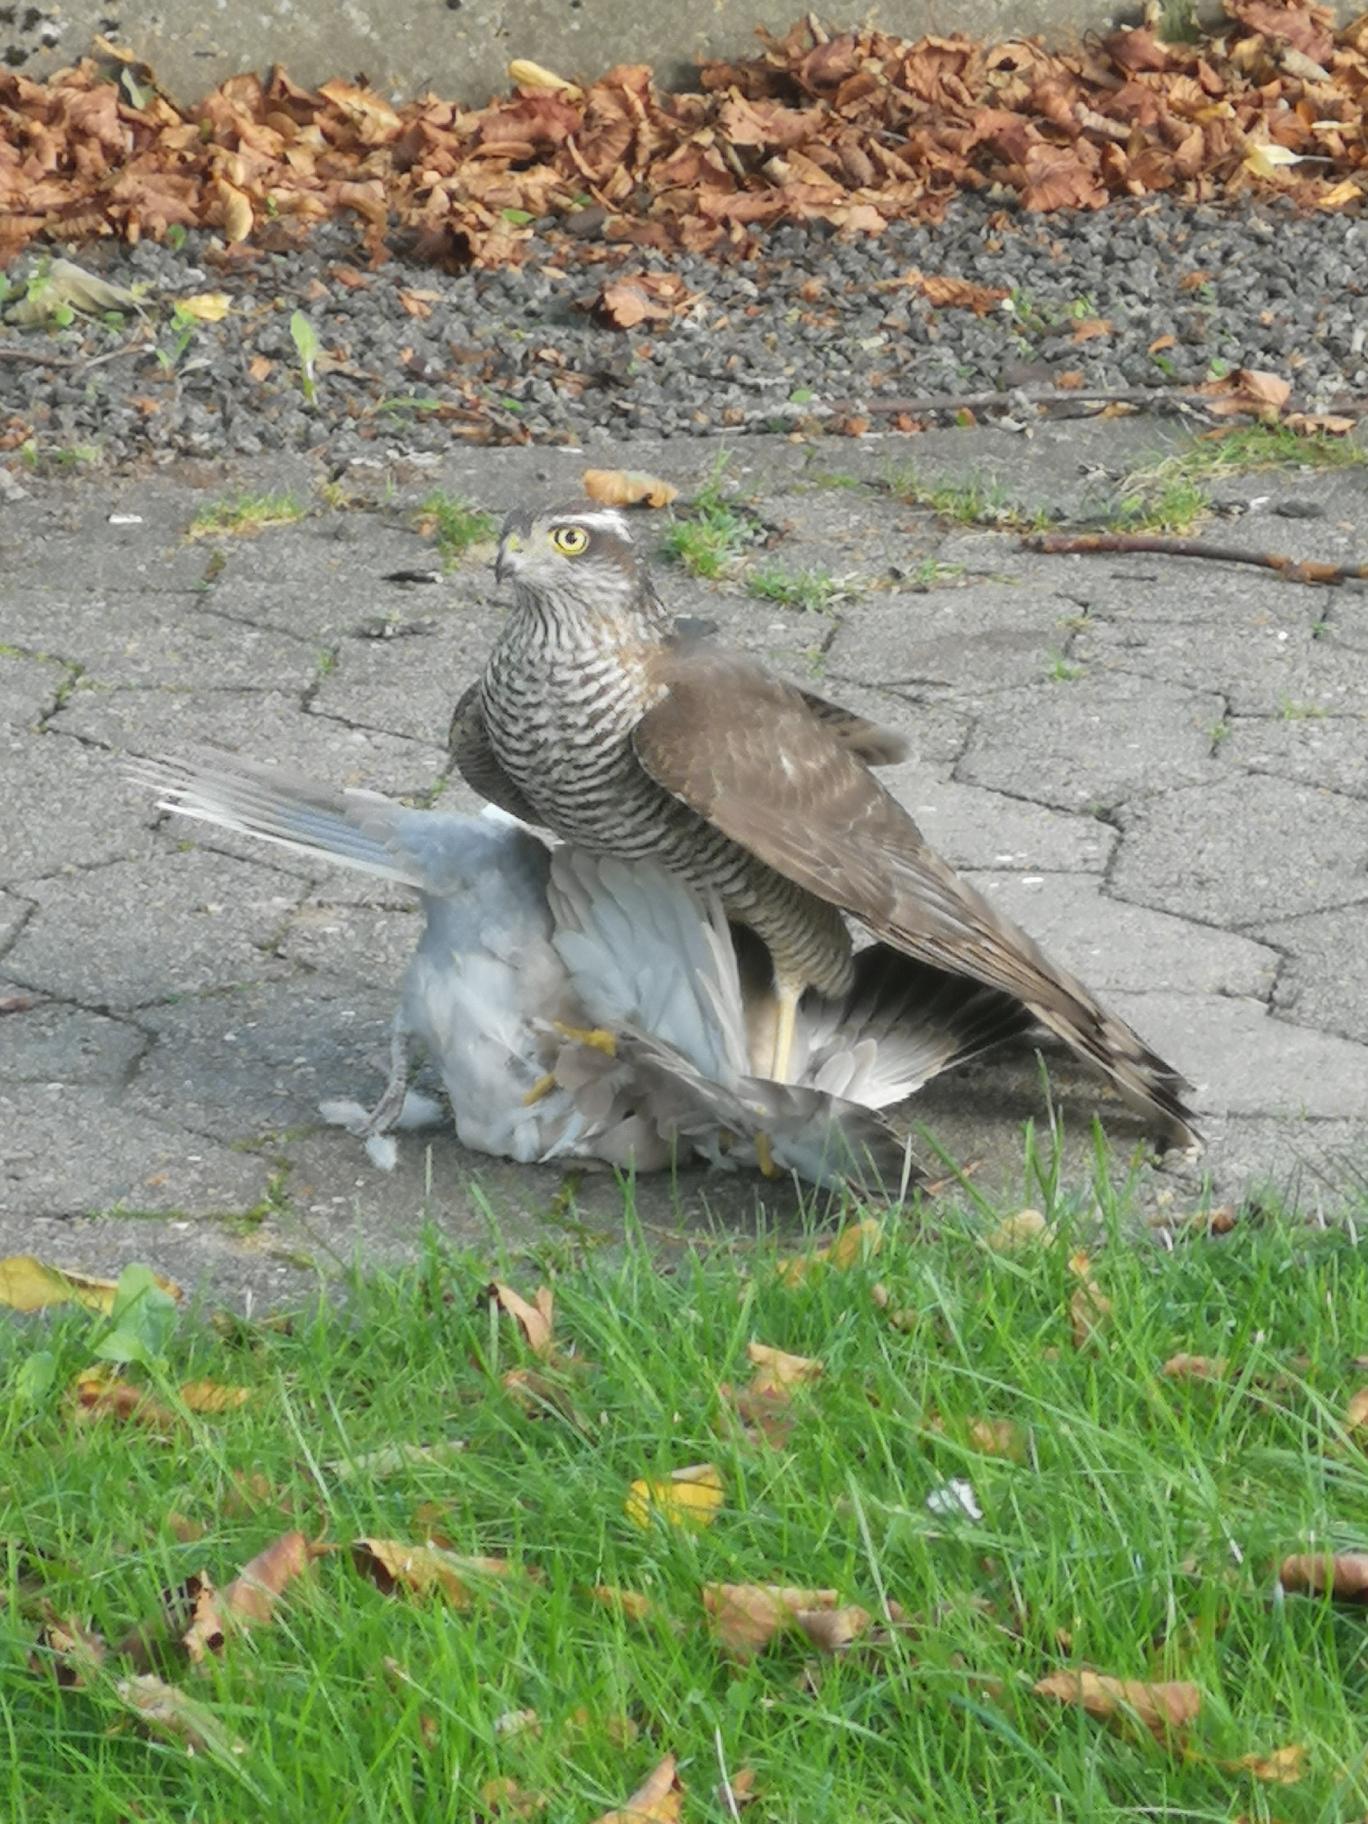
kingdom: Animalia
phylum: Chordata
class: Aves
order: Accipitriformes
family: Accipitridae
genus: Accipiter
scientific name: Accipiter nisus
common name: Spurvehøg
